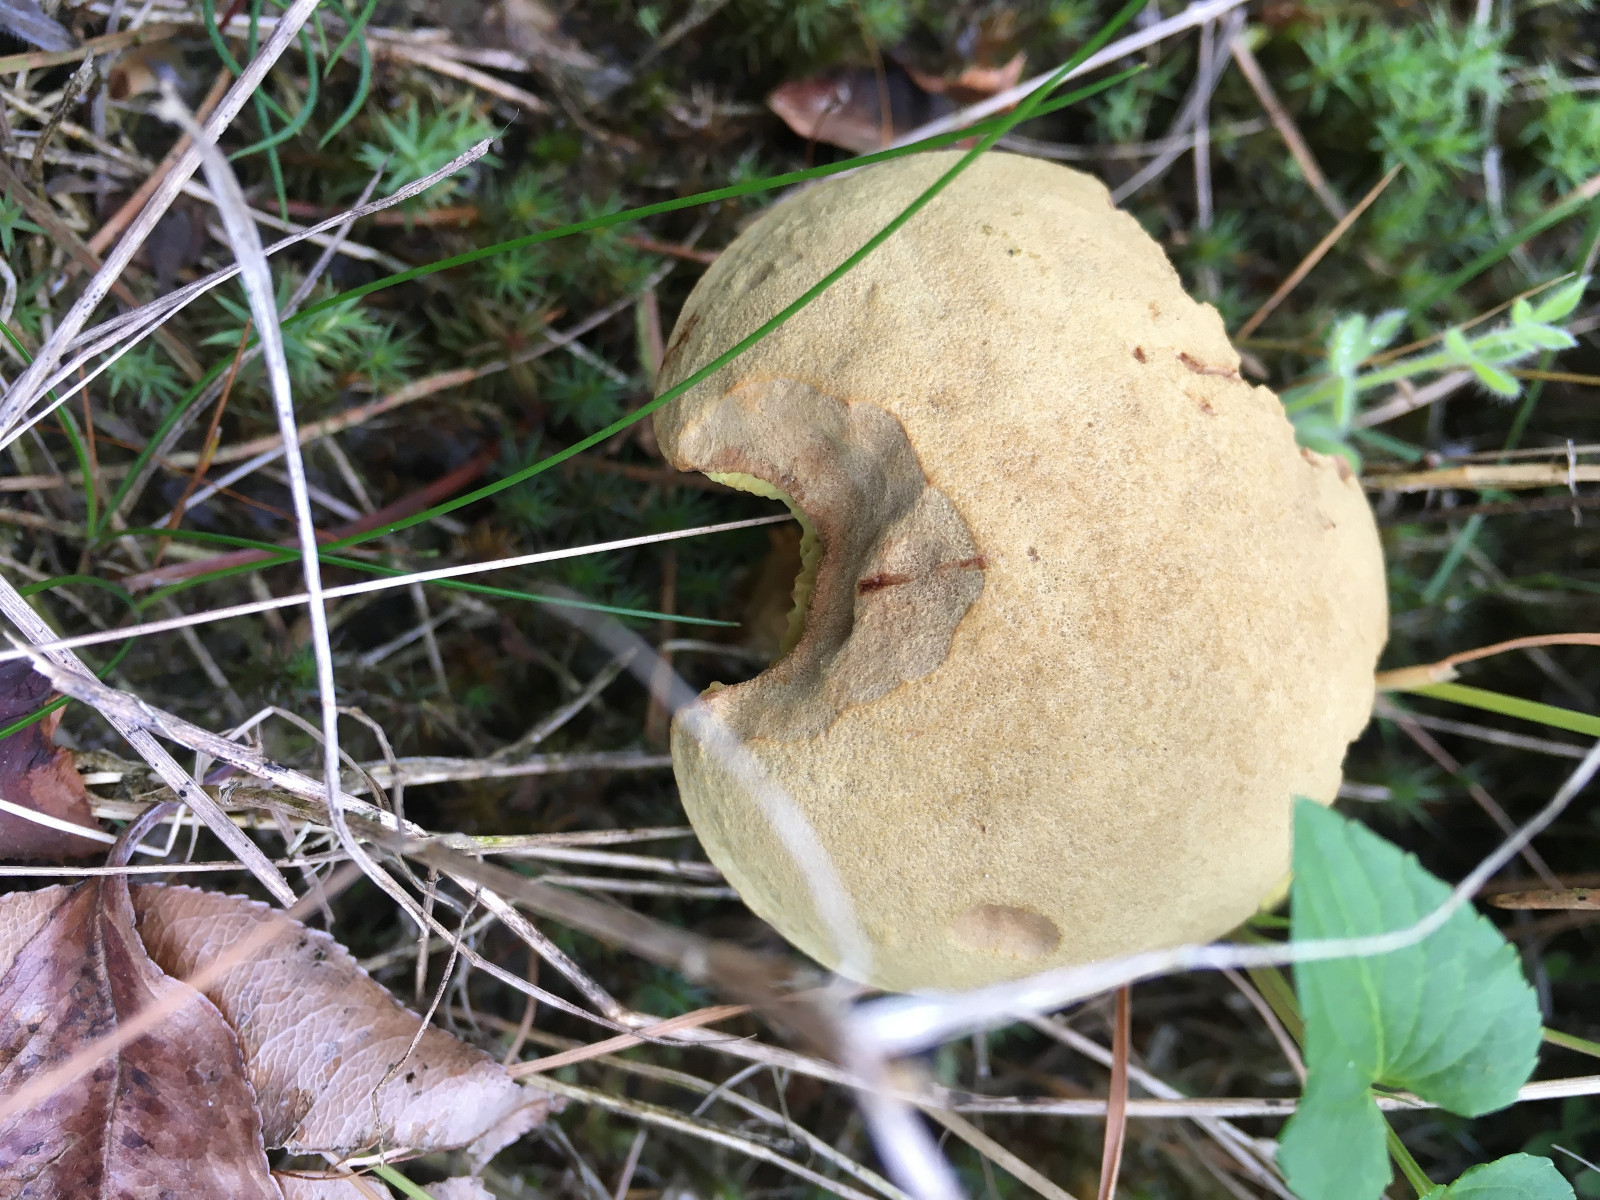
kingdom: Fungi
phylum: Basidiomycota
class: Agaricomycetes
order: Boletales
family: Boletaceae
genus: Xerocomus
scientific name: Xerocomus subtomentosus
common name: filtet rørhat
